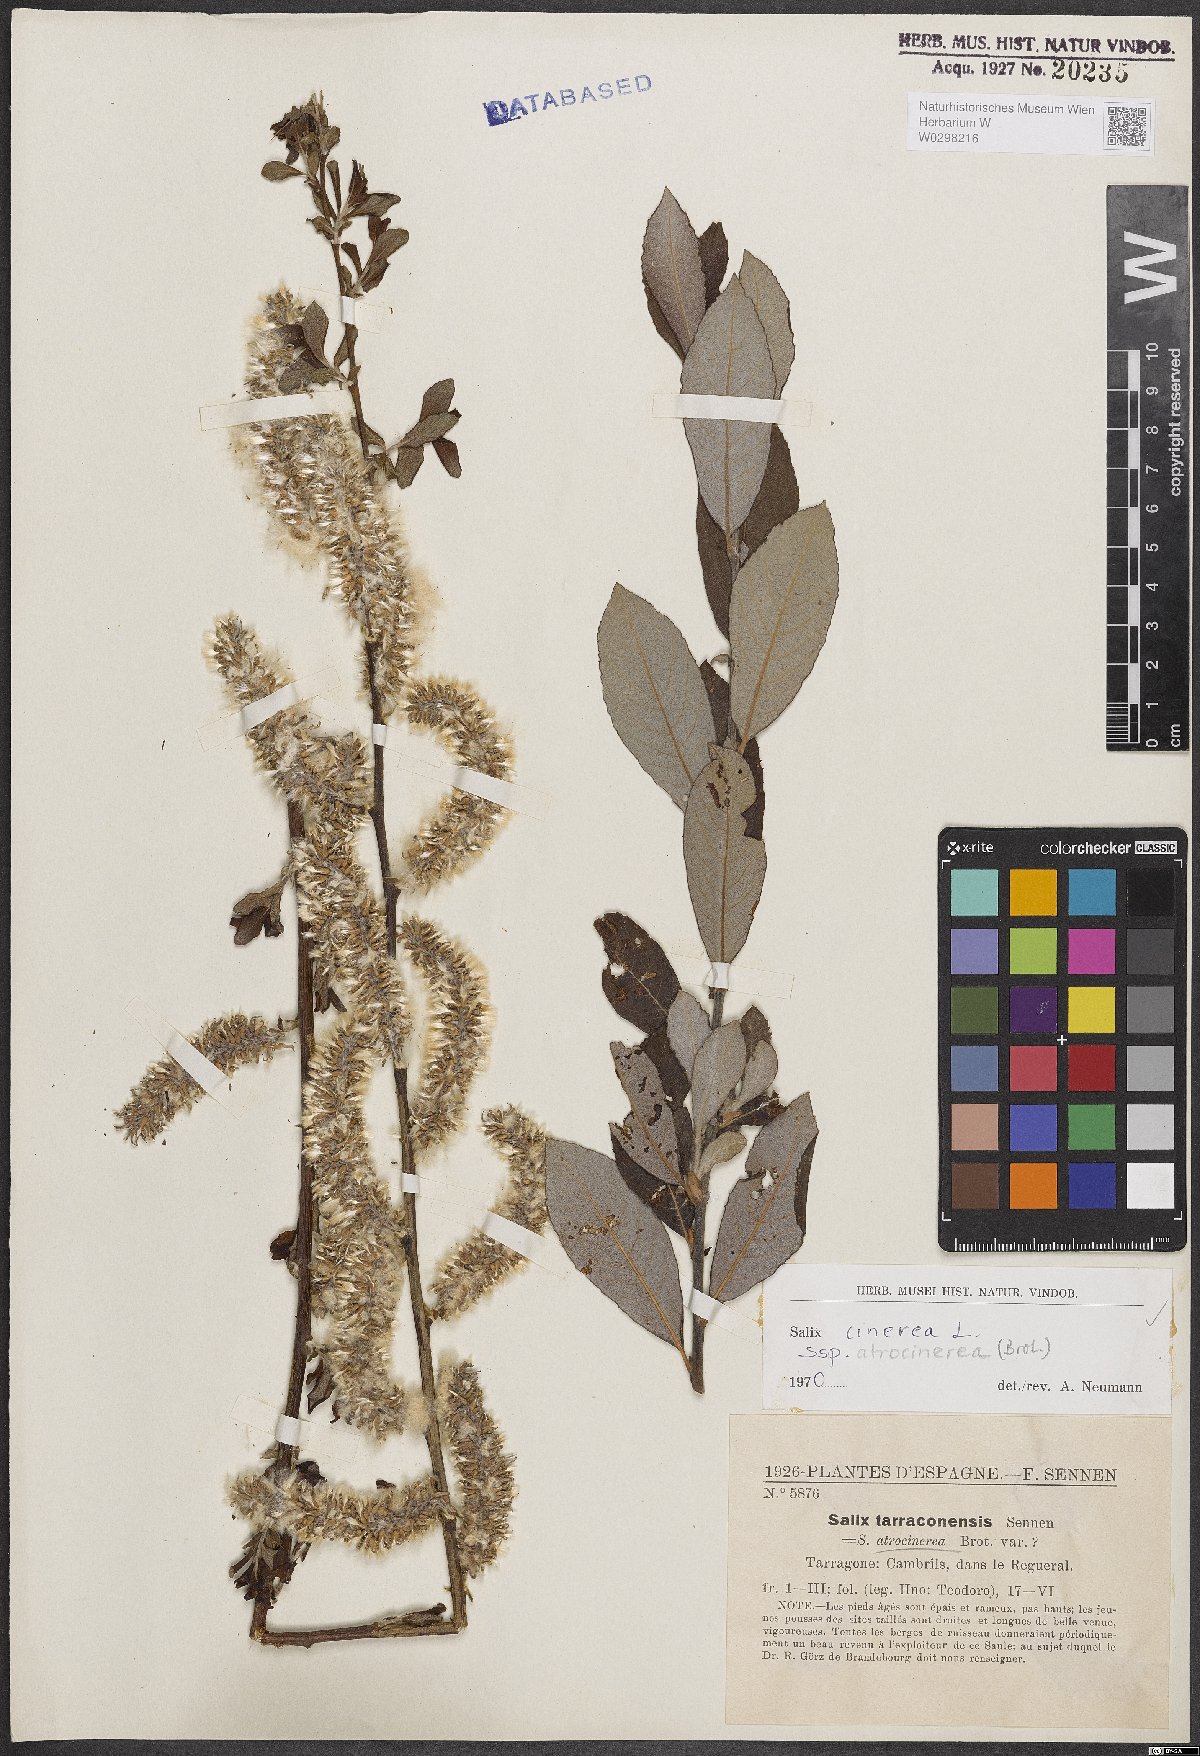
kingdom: Plantae
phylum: Tracheophyta
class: Magnoliopsida
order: Malpighiales
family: Salicaceae
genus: Salix
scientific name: Salix atrocinerea
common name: Rusty willow
